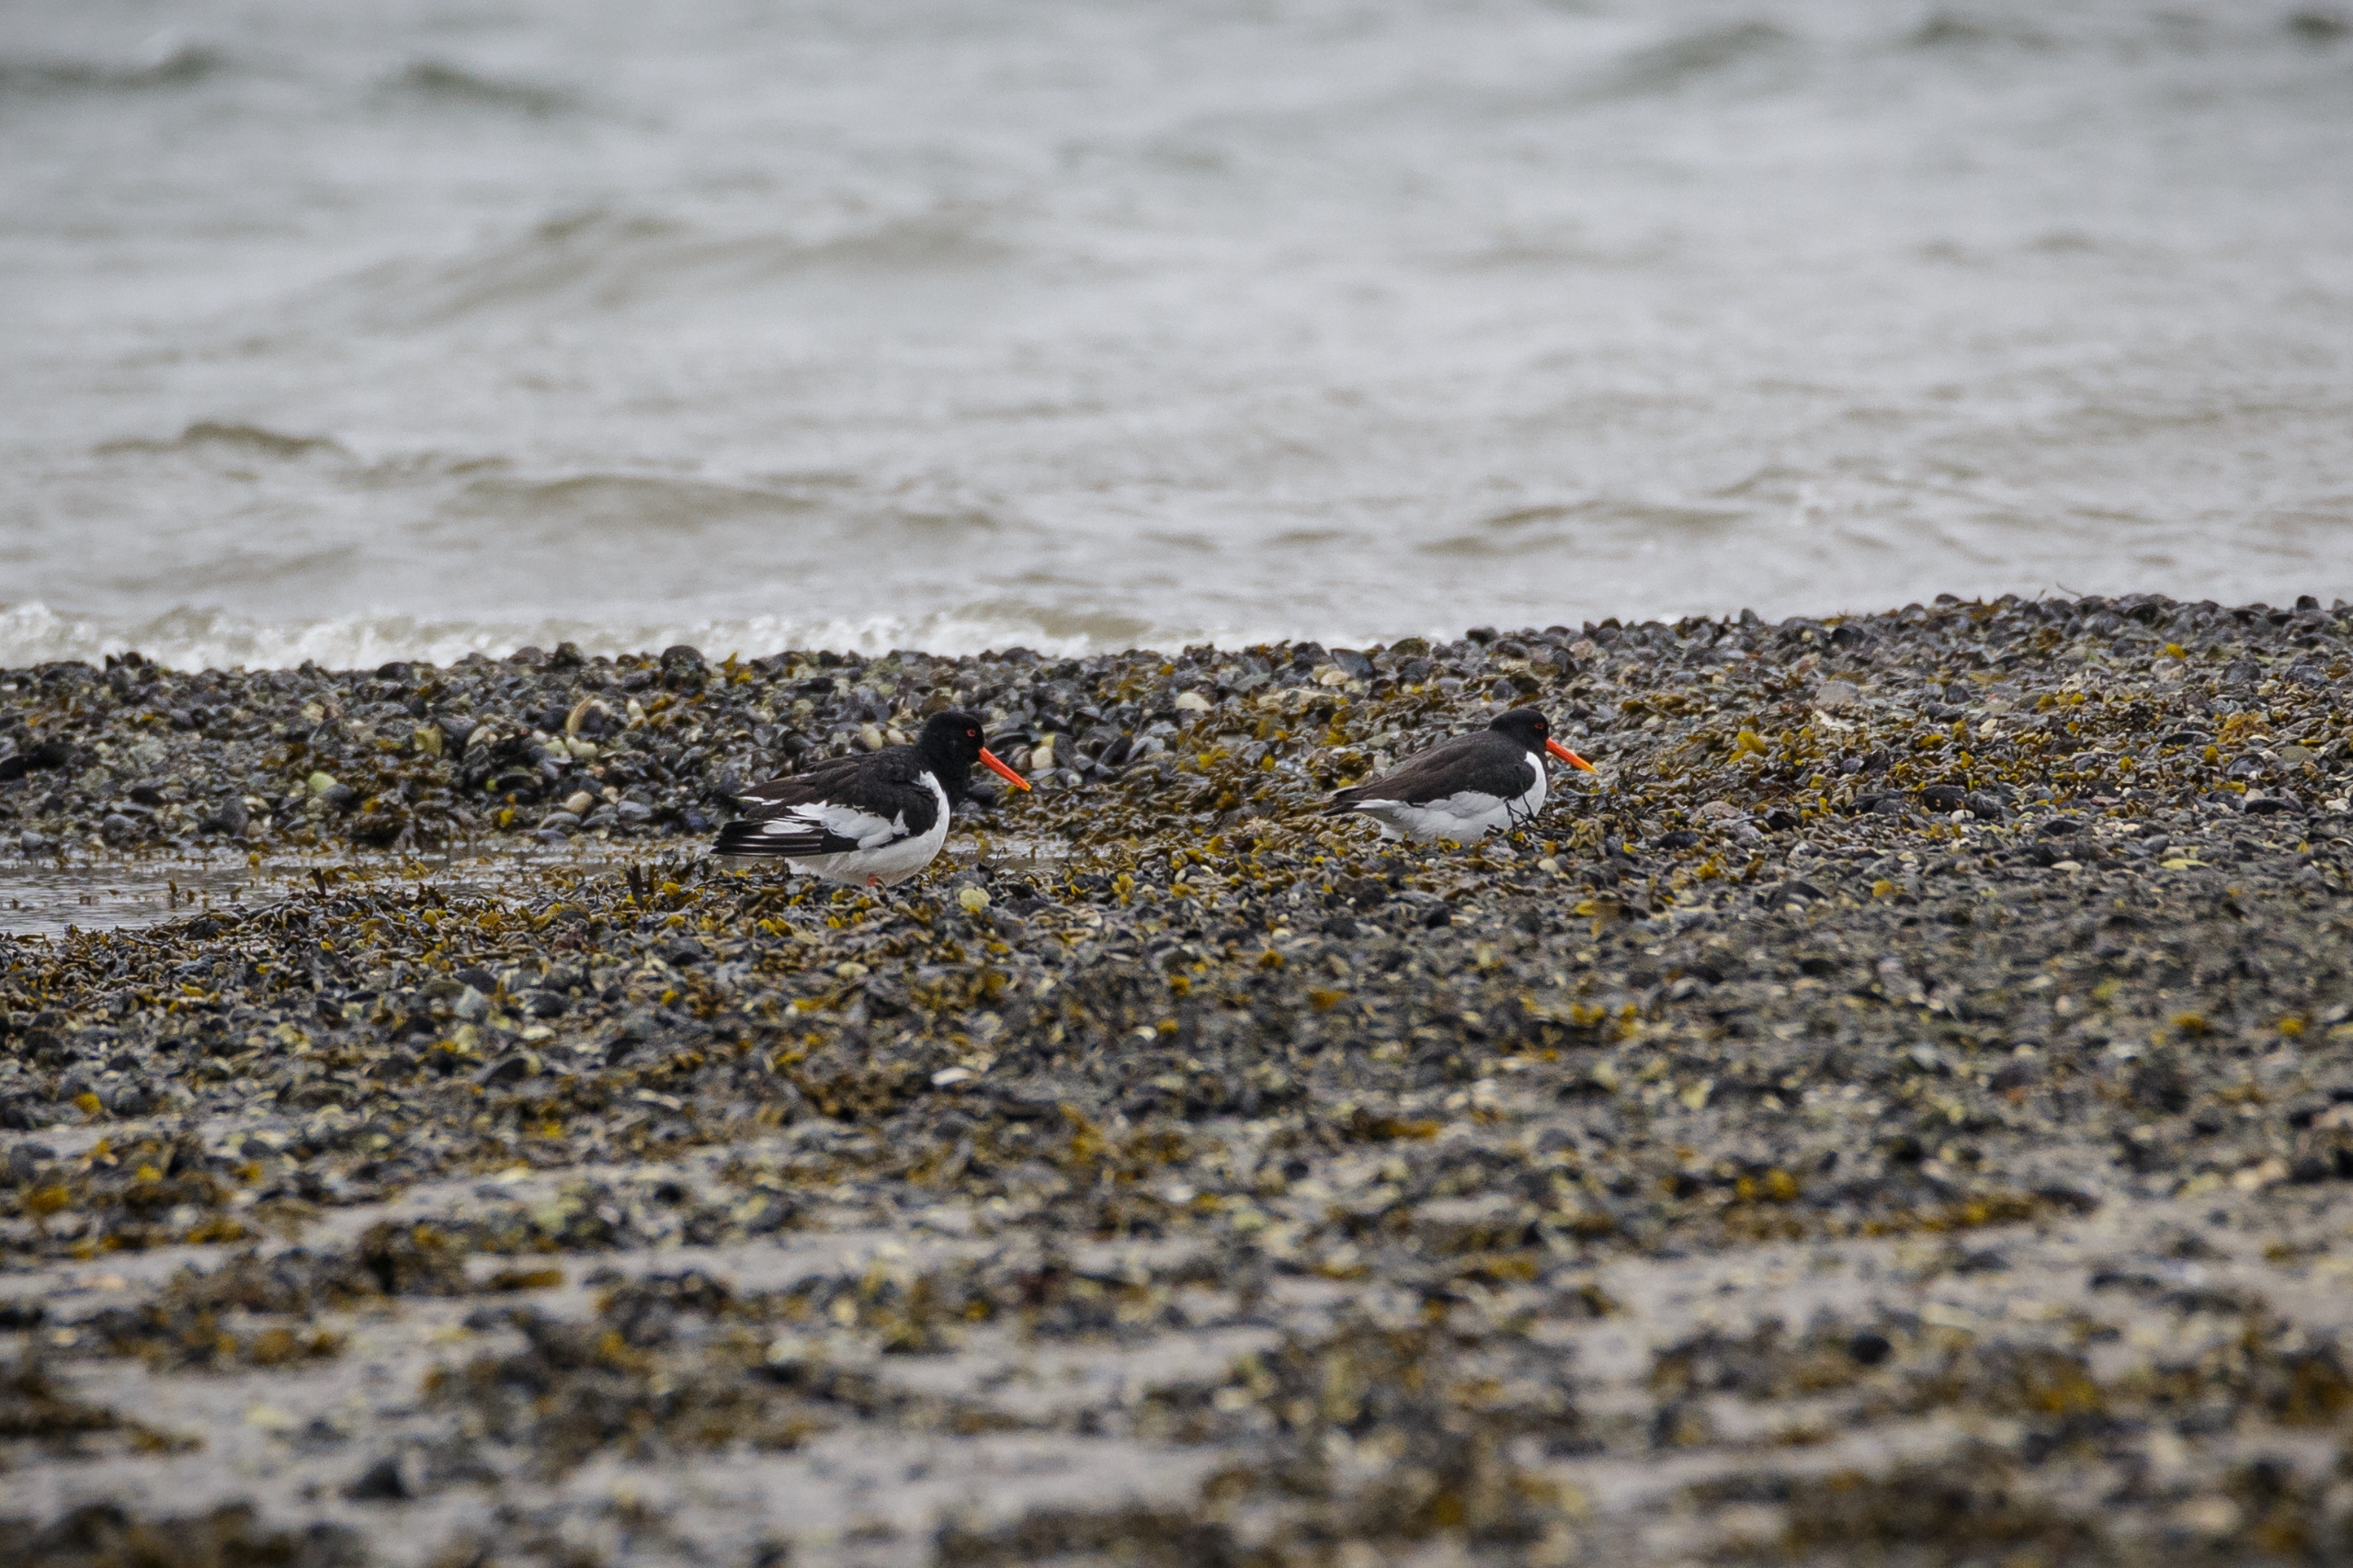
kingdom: Animalia
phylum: Chordata
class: Aves
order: Charadriiformes
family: Haematopodidae
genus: Haematopus
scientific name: Haematopus ostralegus
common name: Strandskade
